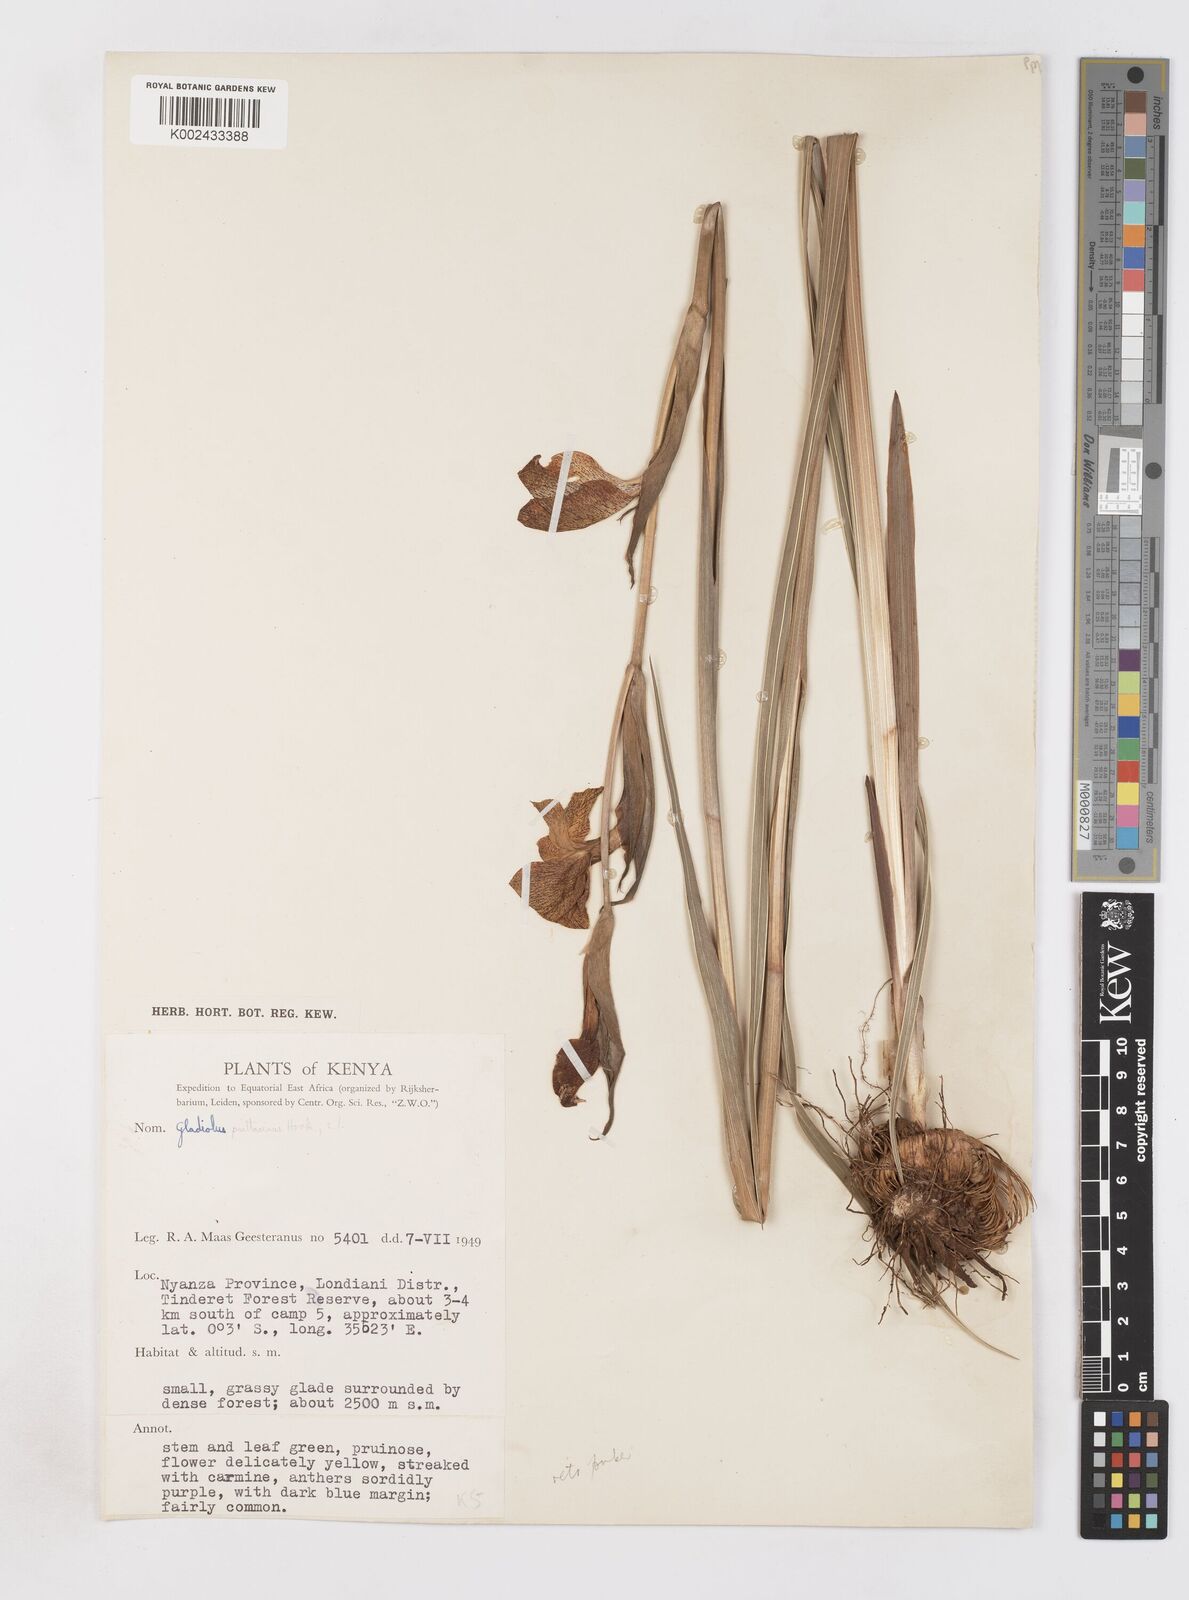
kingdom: Plantae
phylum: Tracheophyta
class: Liliopsida
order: Asparagales
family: Iridaceae
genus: Gladiolus
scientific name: Gladiolus dalenii
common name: Cornflag
